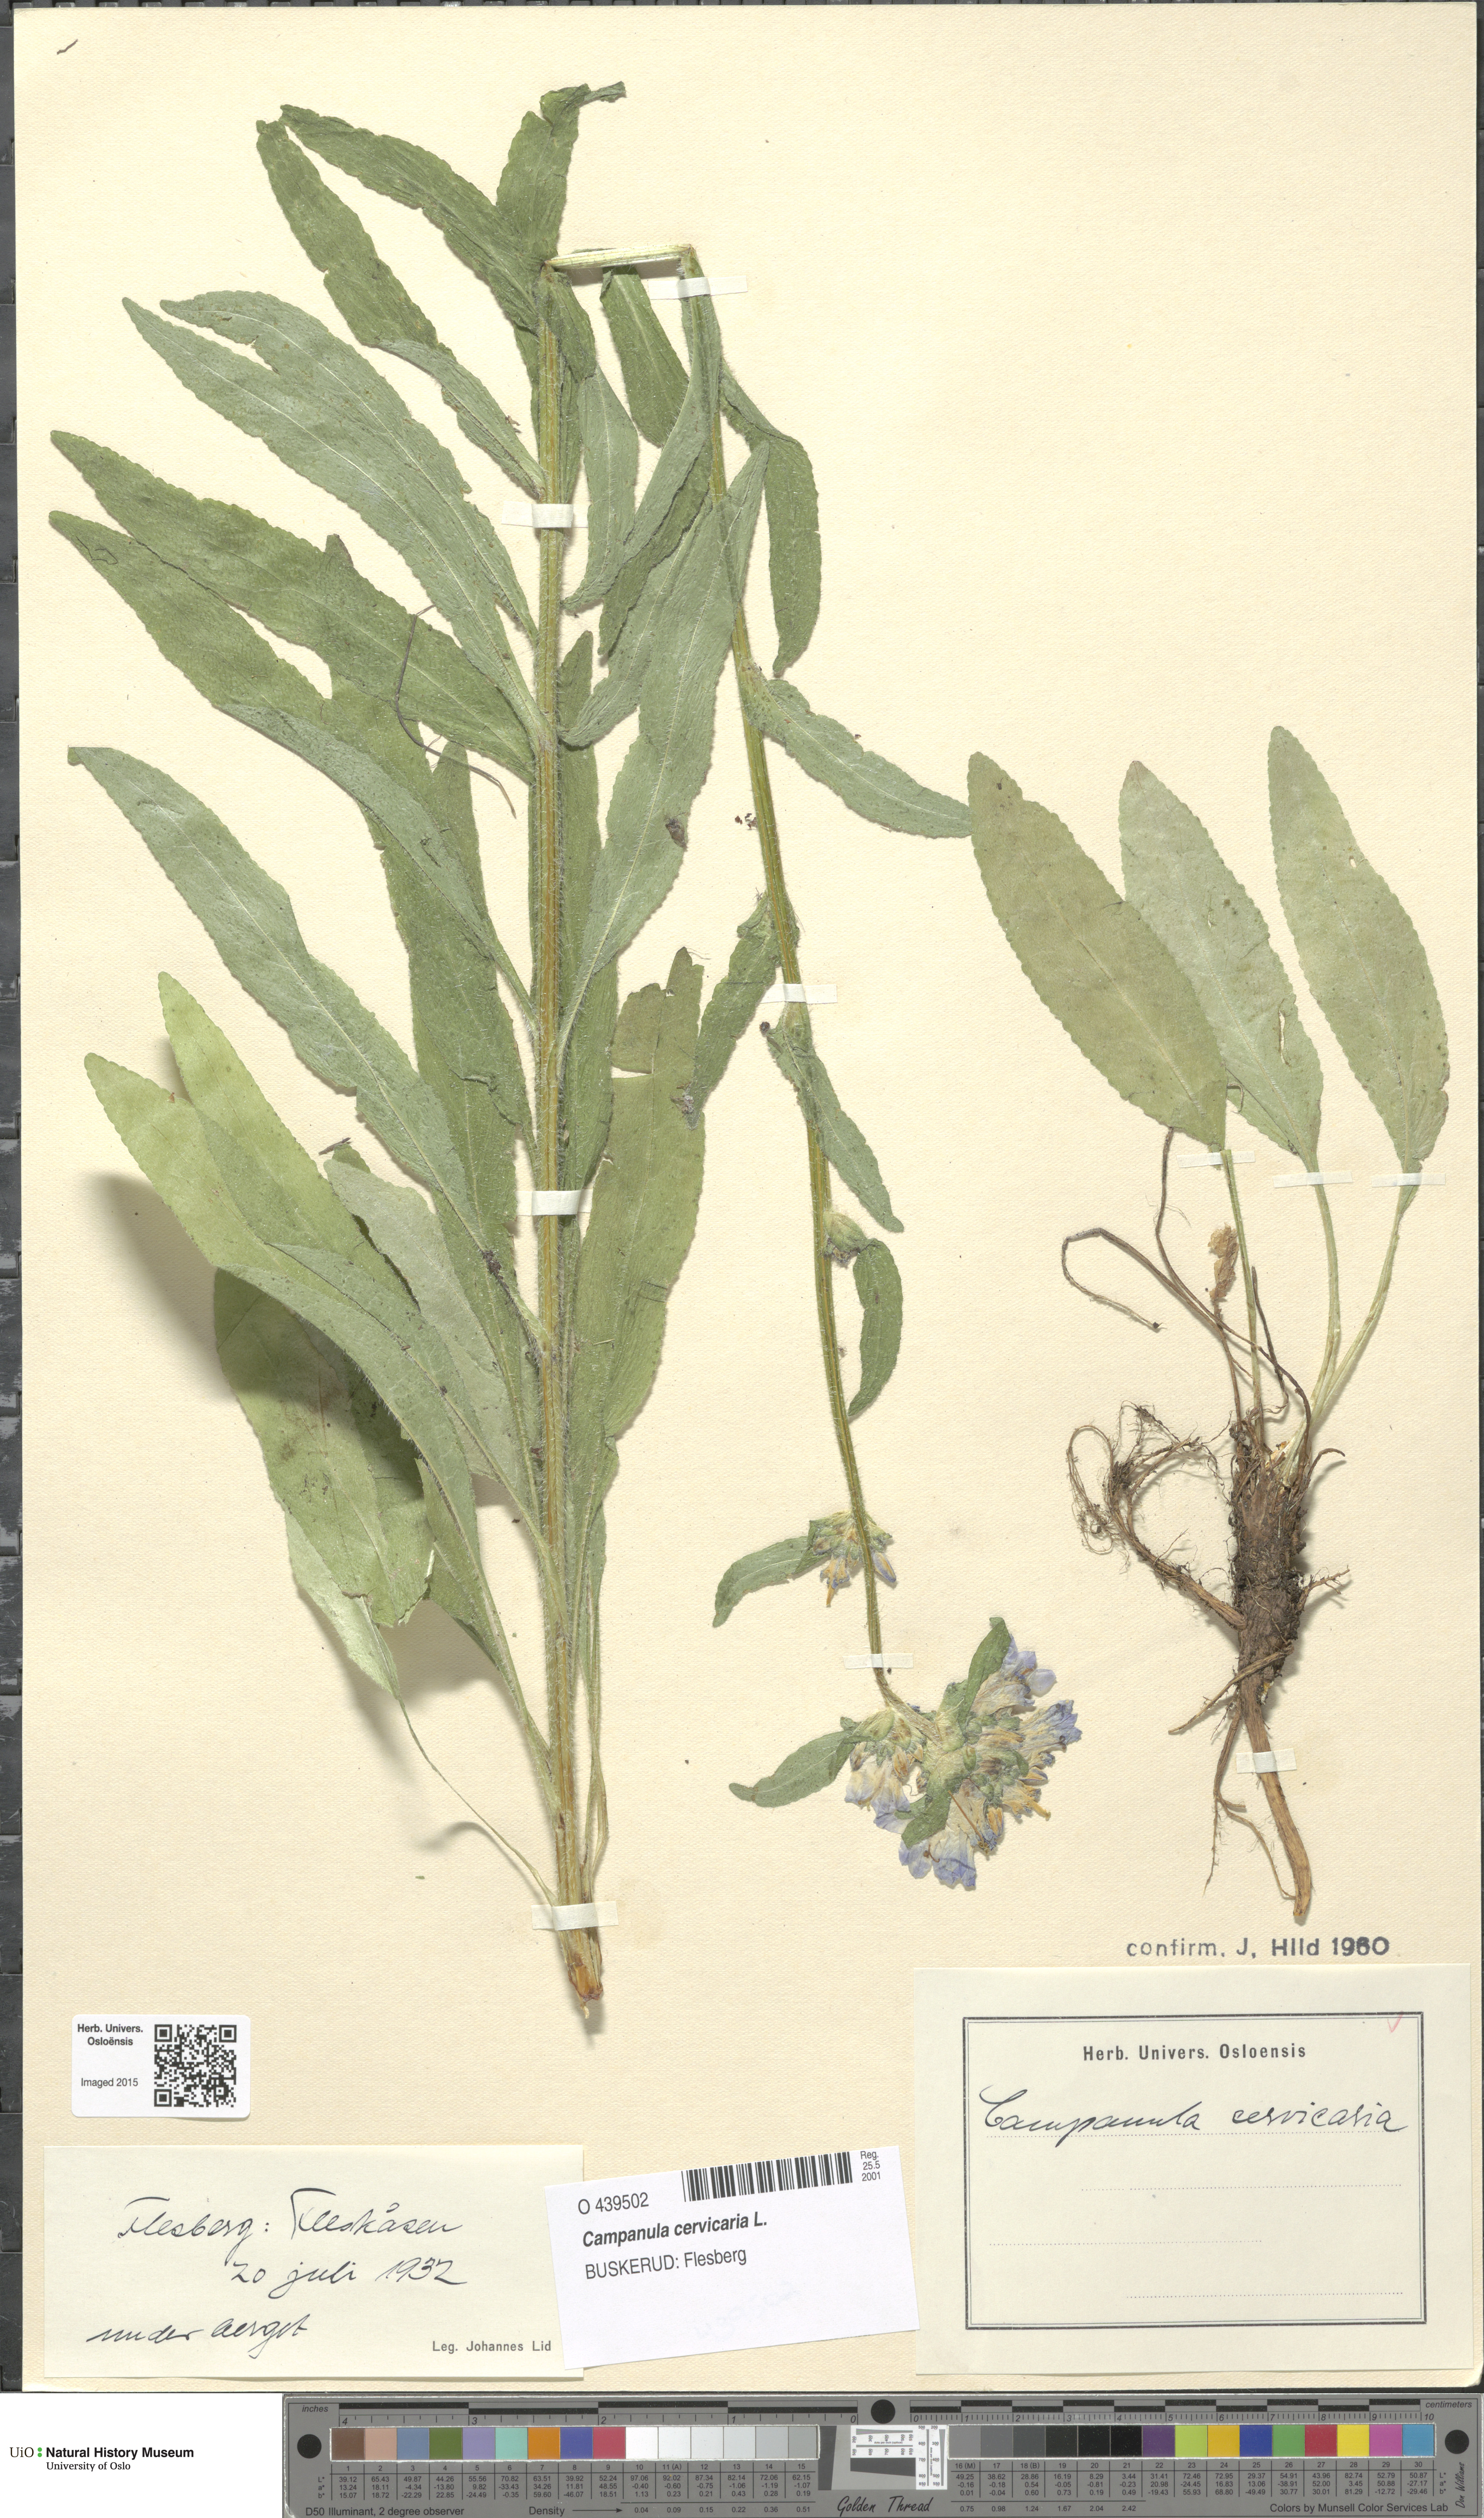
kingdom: Plantae
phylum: Tracheophyta
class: Magnoliopsida
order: Asterales
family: Campanulaceae
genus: Campanula
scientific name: Campanula cervicaria
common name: Bristly bellflower
